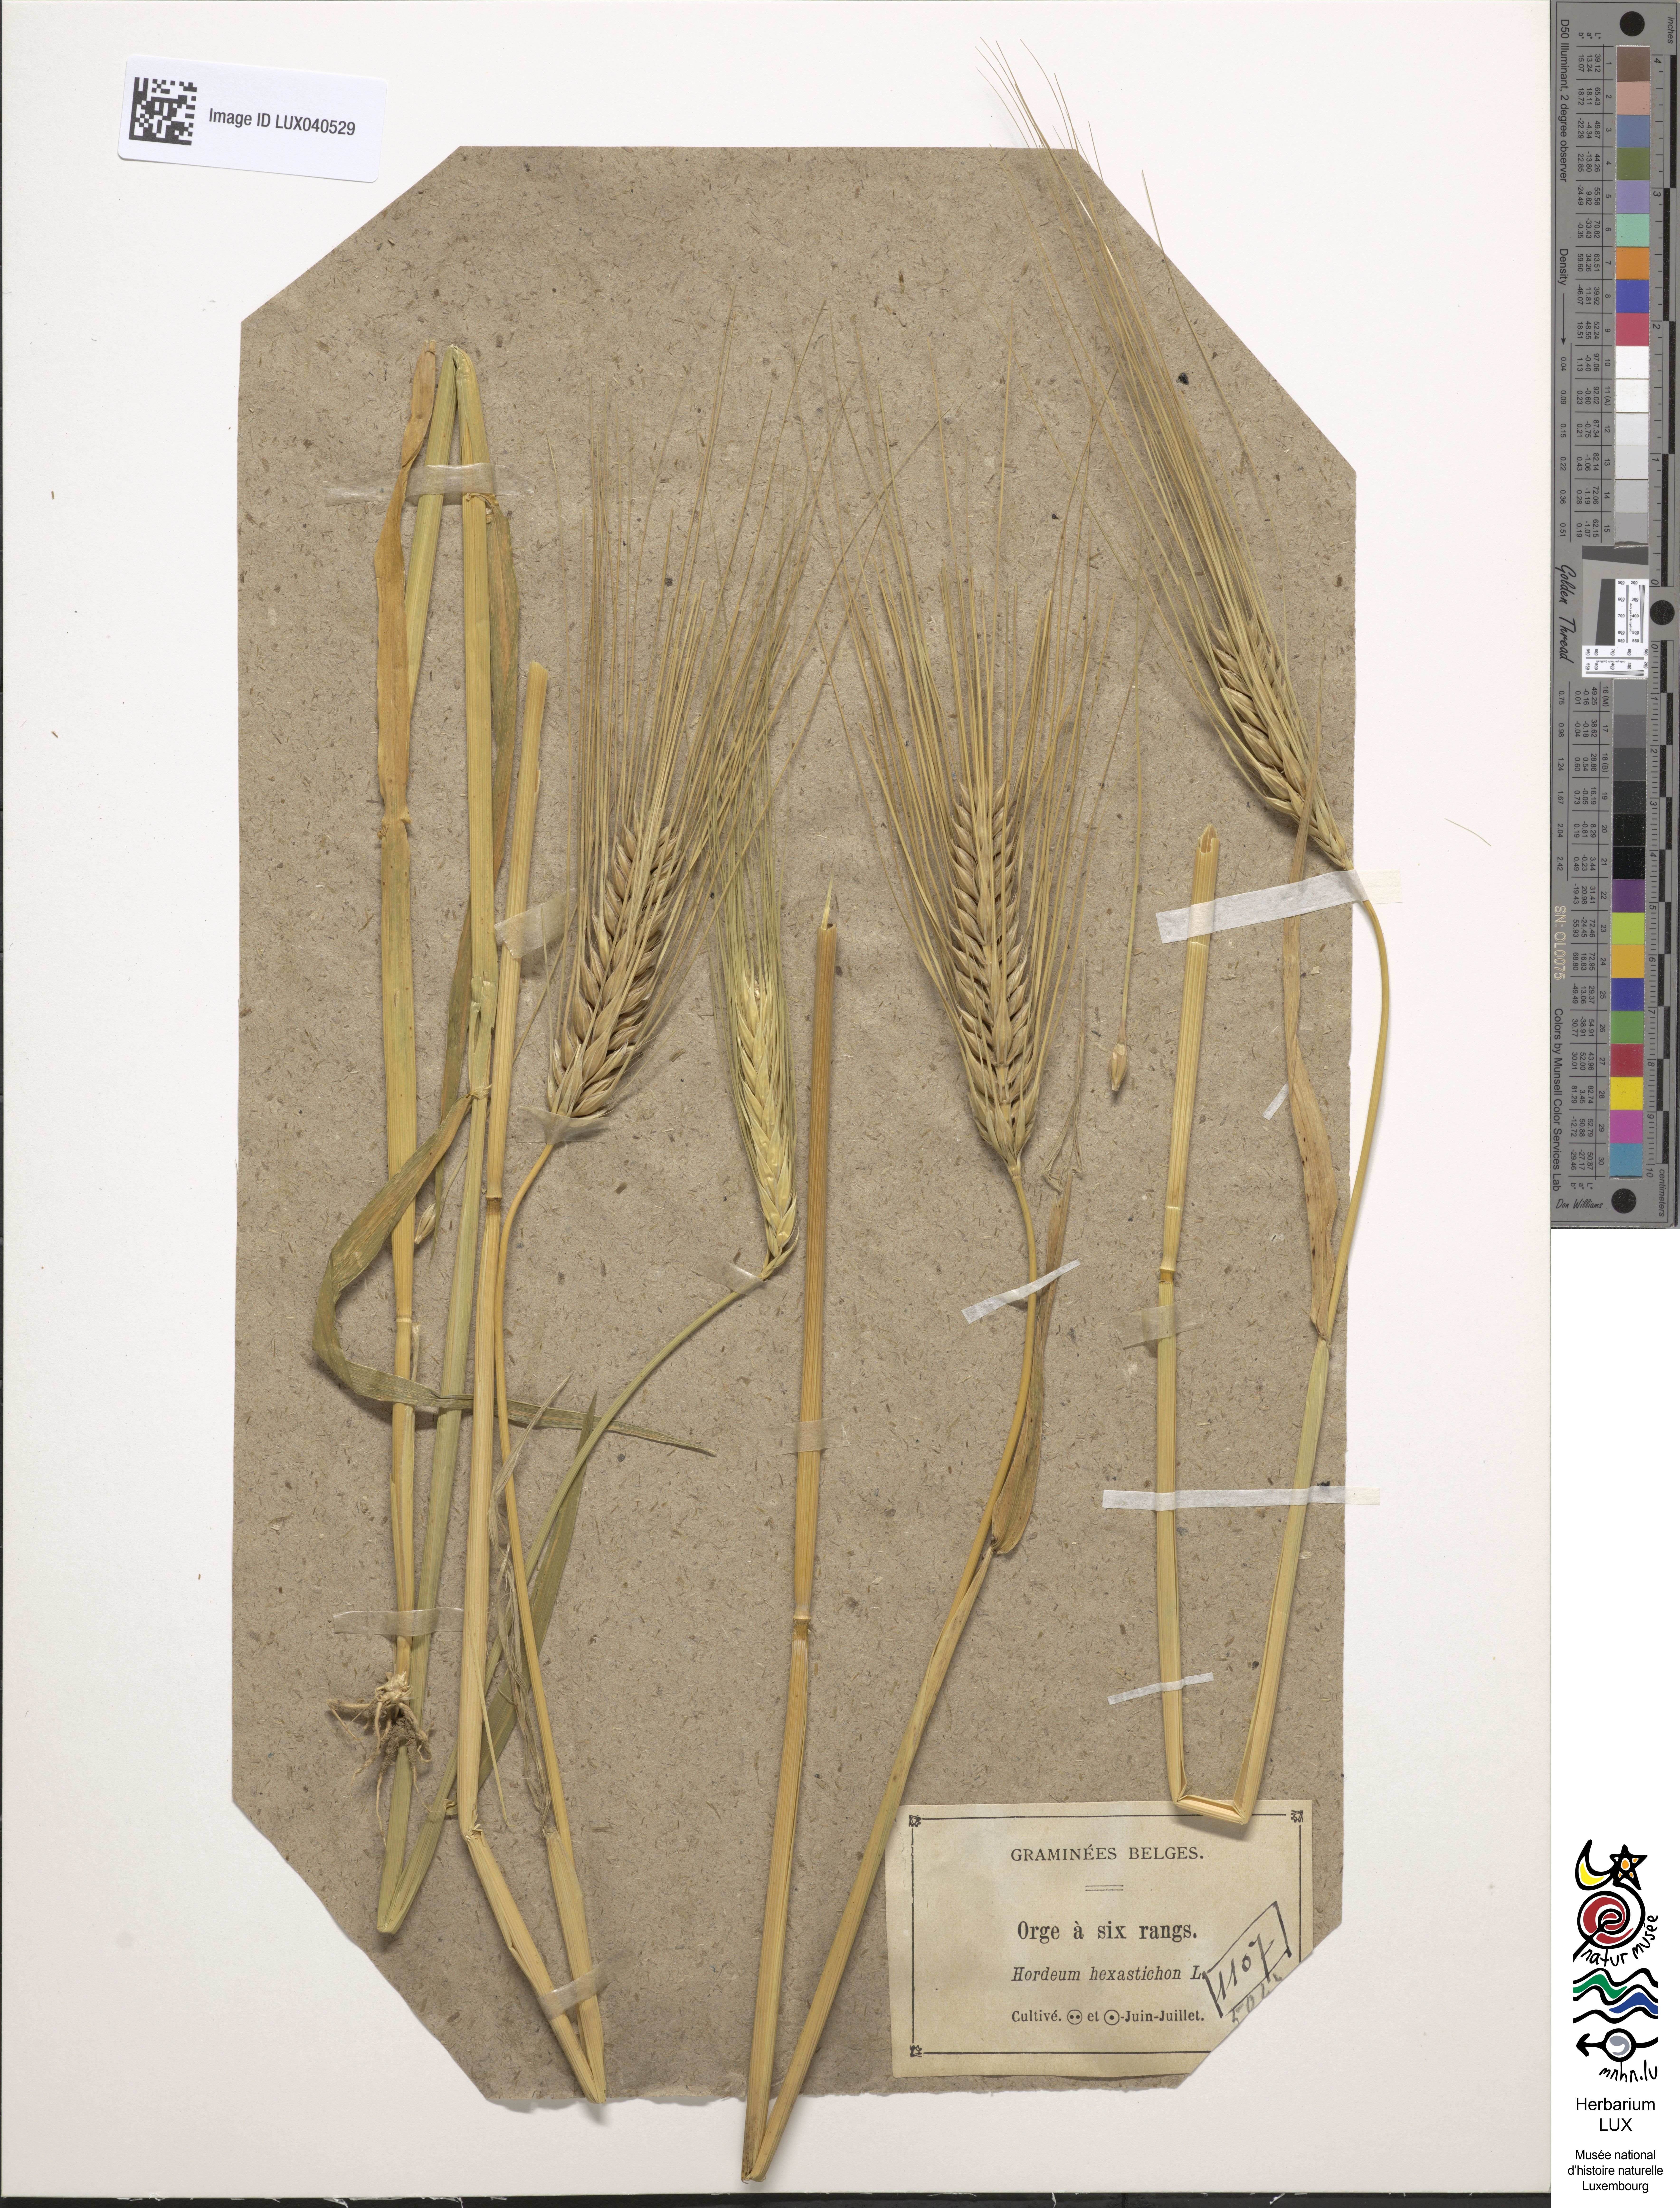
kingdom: Plantae
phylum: Tracheophyta
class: Liliopsida
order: Poales
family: Poaceae
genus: Hordeum
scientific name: Hordeum vulgare
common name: Common barley
